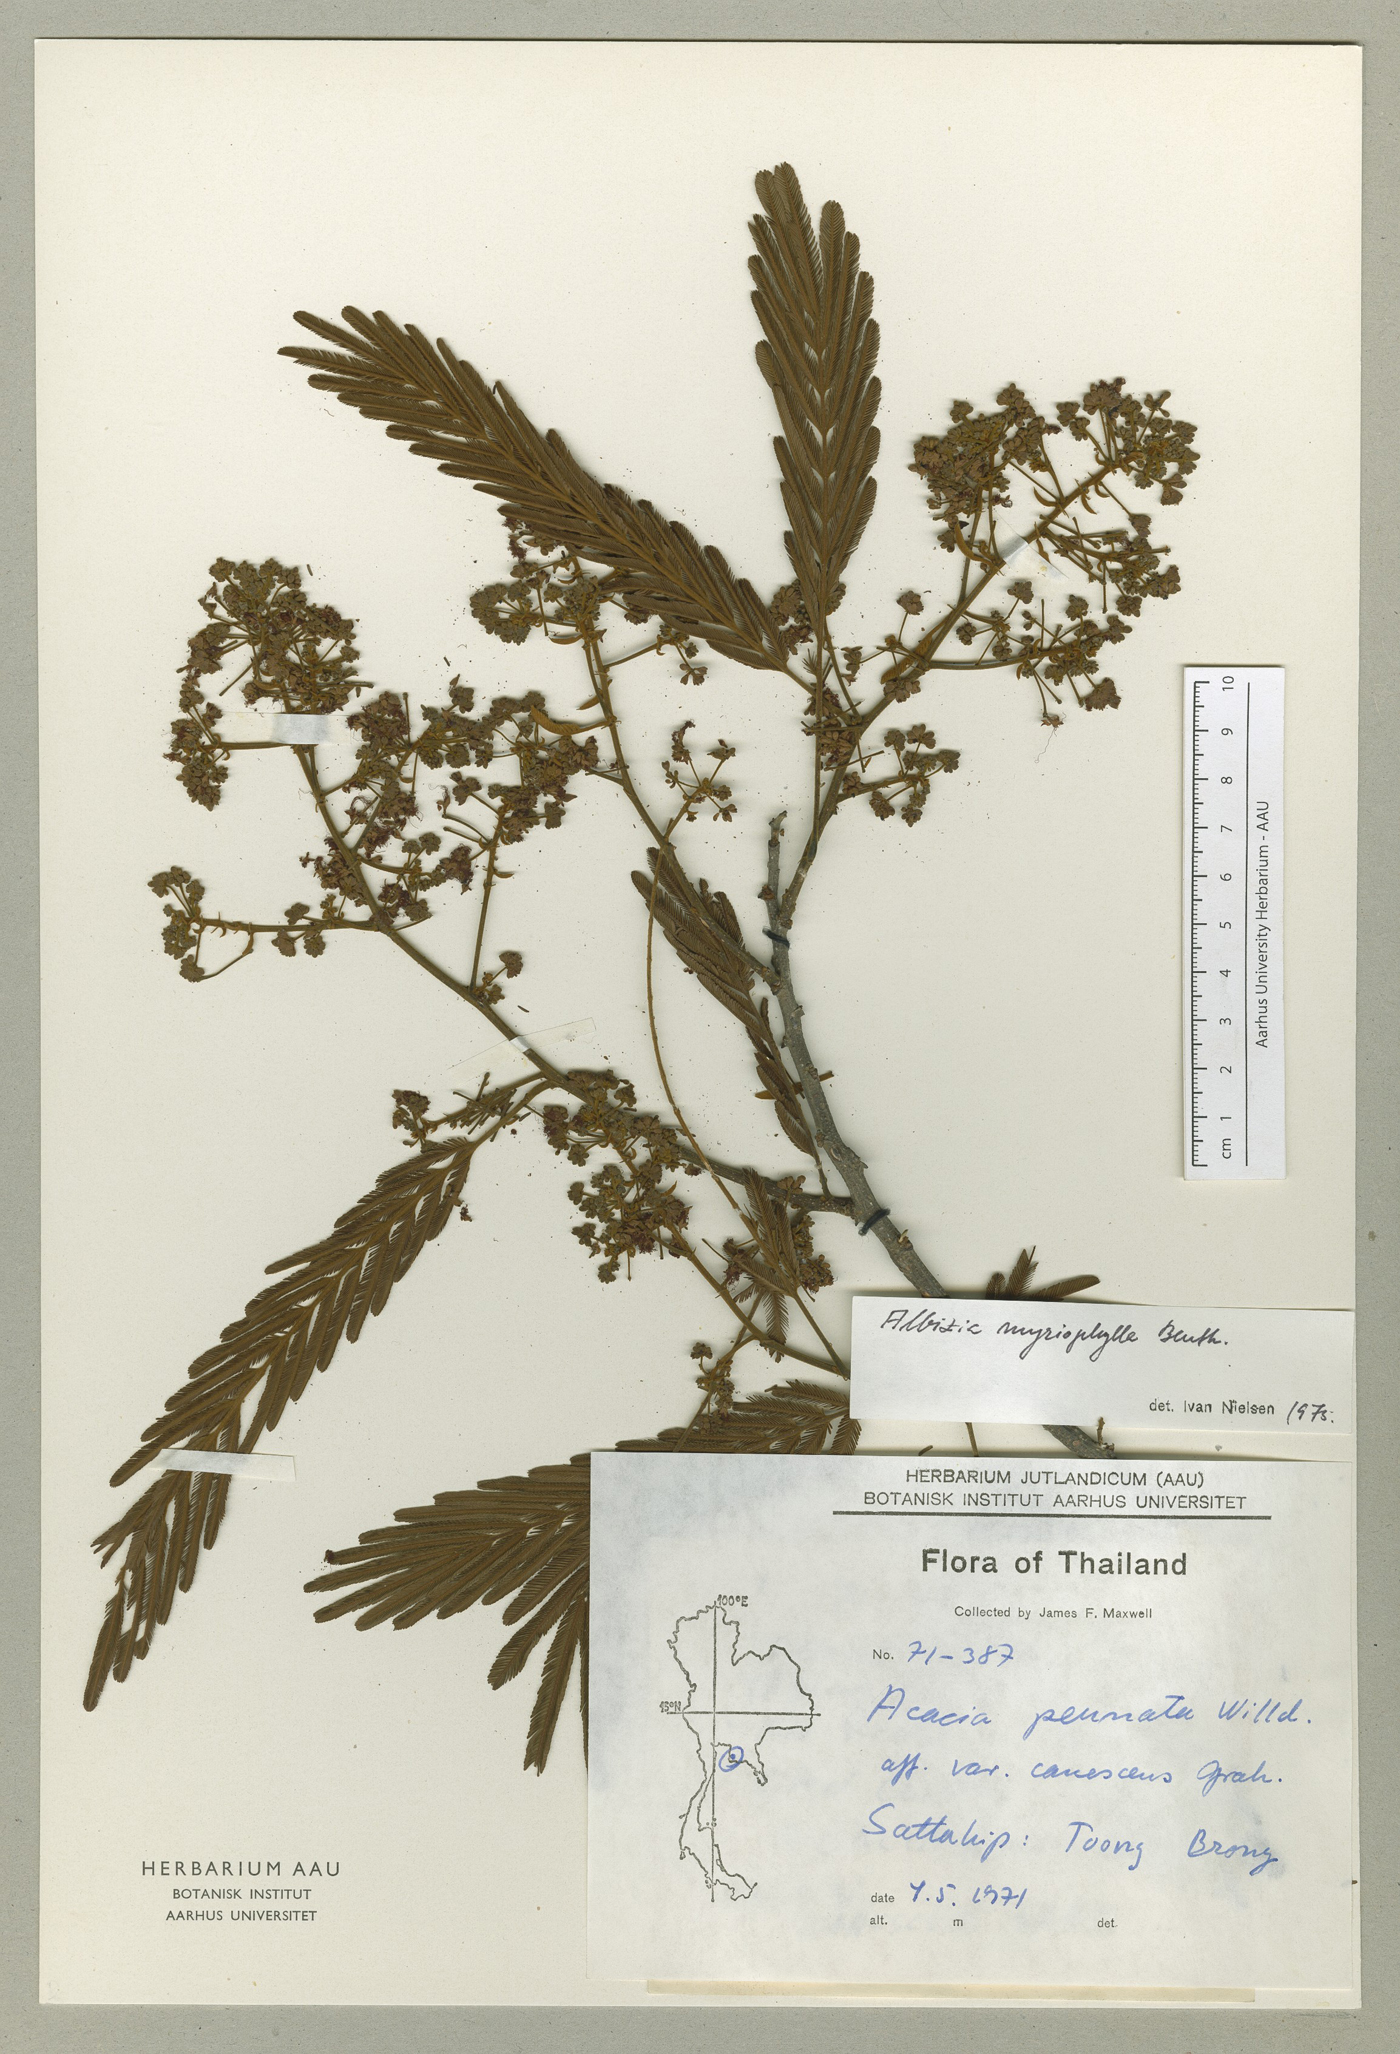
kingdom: Plantae
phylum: Tracheophyta
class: Magnoliopsida
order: Fabales
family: Fabaceae
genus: Albizia
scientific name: Albizia myriophylla
